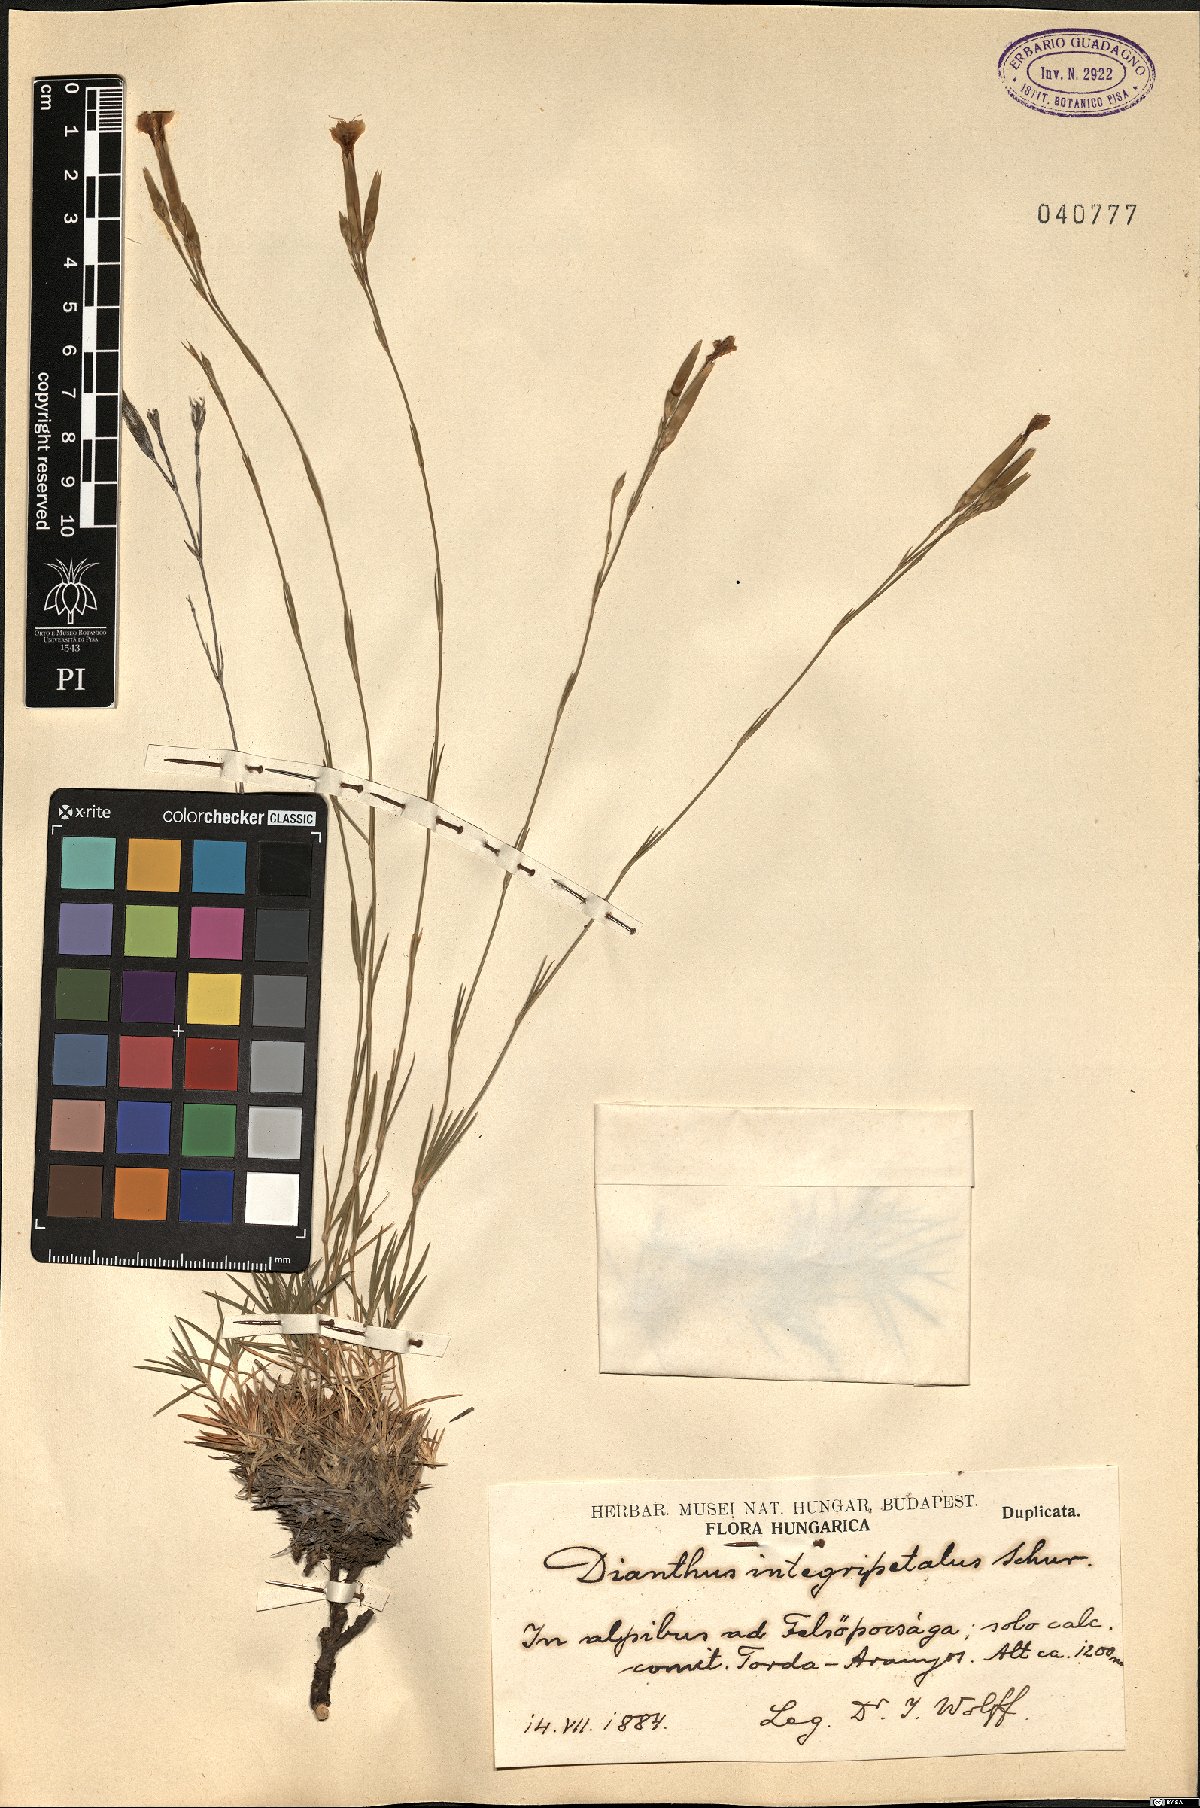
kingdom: Plantae
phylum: Tracheophyta
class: Magnoliopsida
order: Caryophyllales
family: Caryophyllaceae
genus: Dianthus
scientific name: Dianthus petraeus
